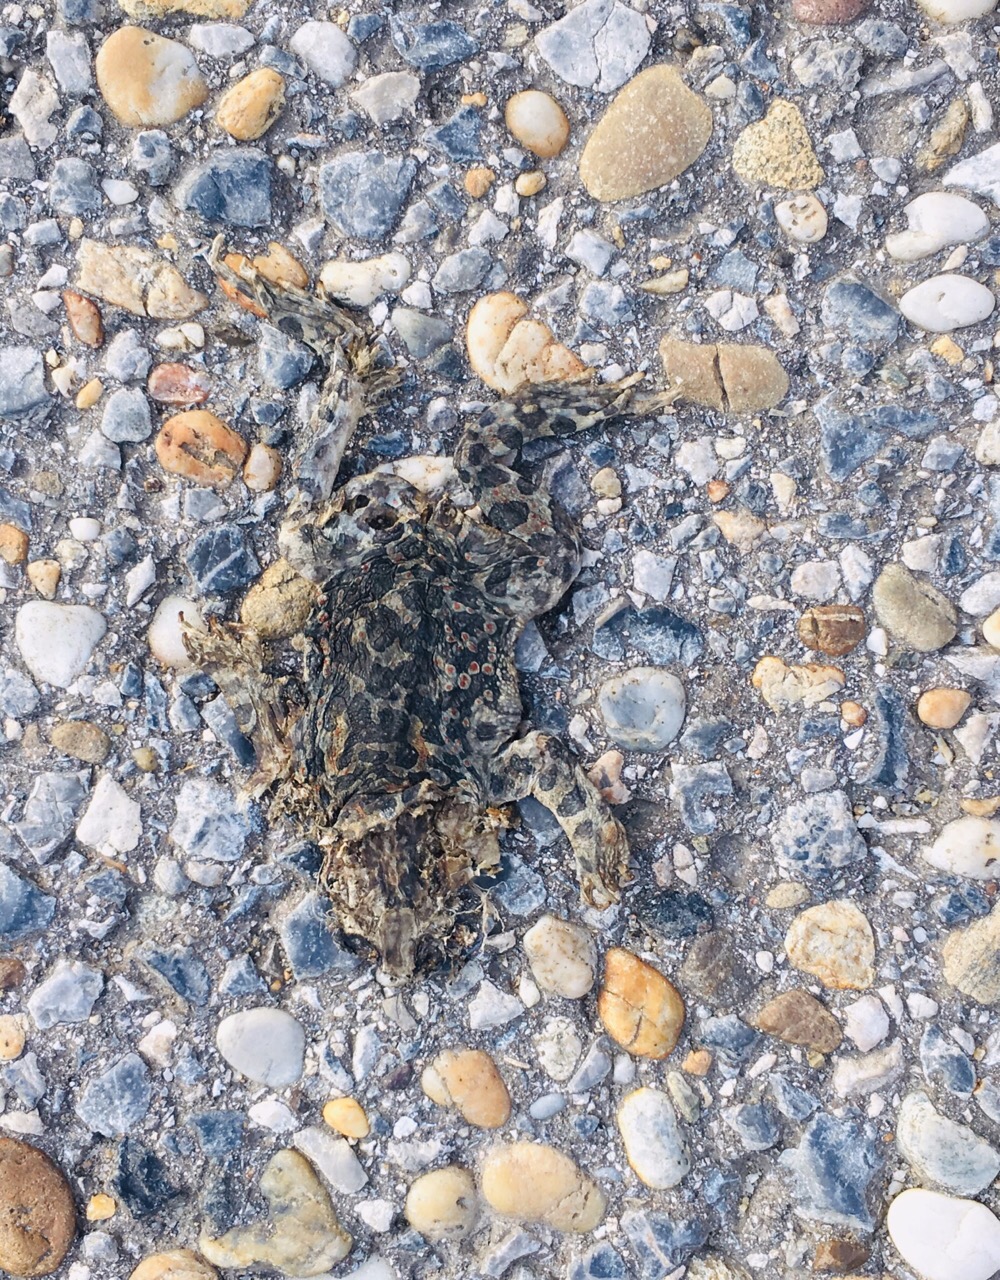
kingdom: Animalia
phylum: Chordata
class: Amphibia
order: Anura
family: Bufonidae
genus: Bufotes
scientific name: Bufotes viridis
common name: European green toad
